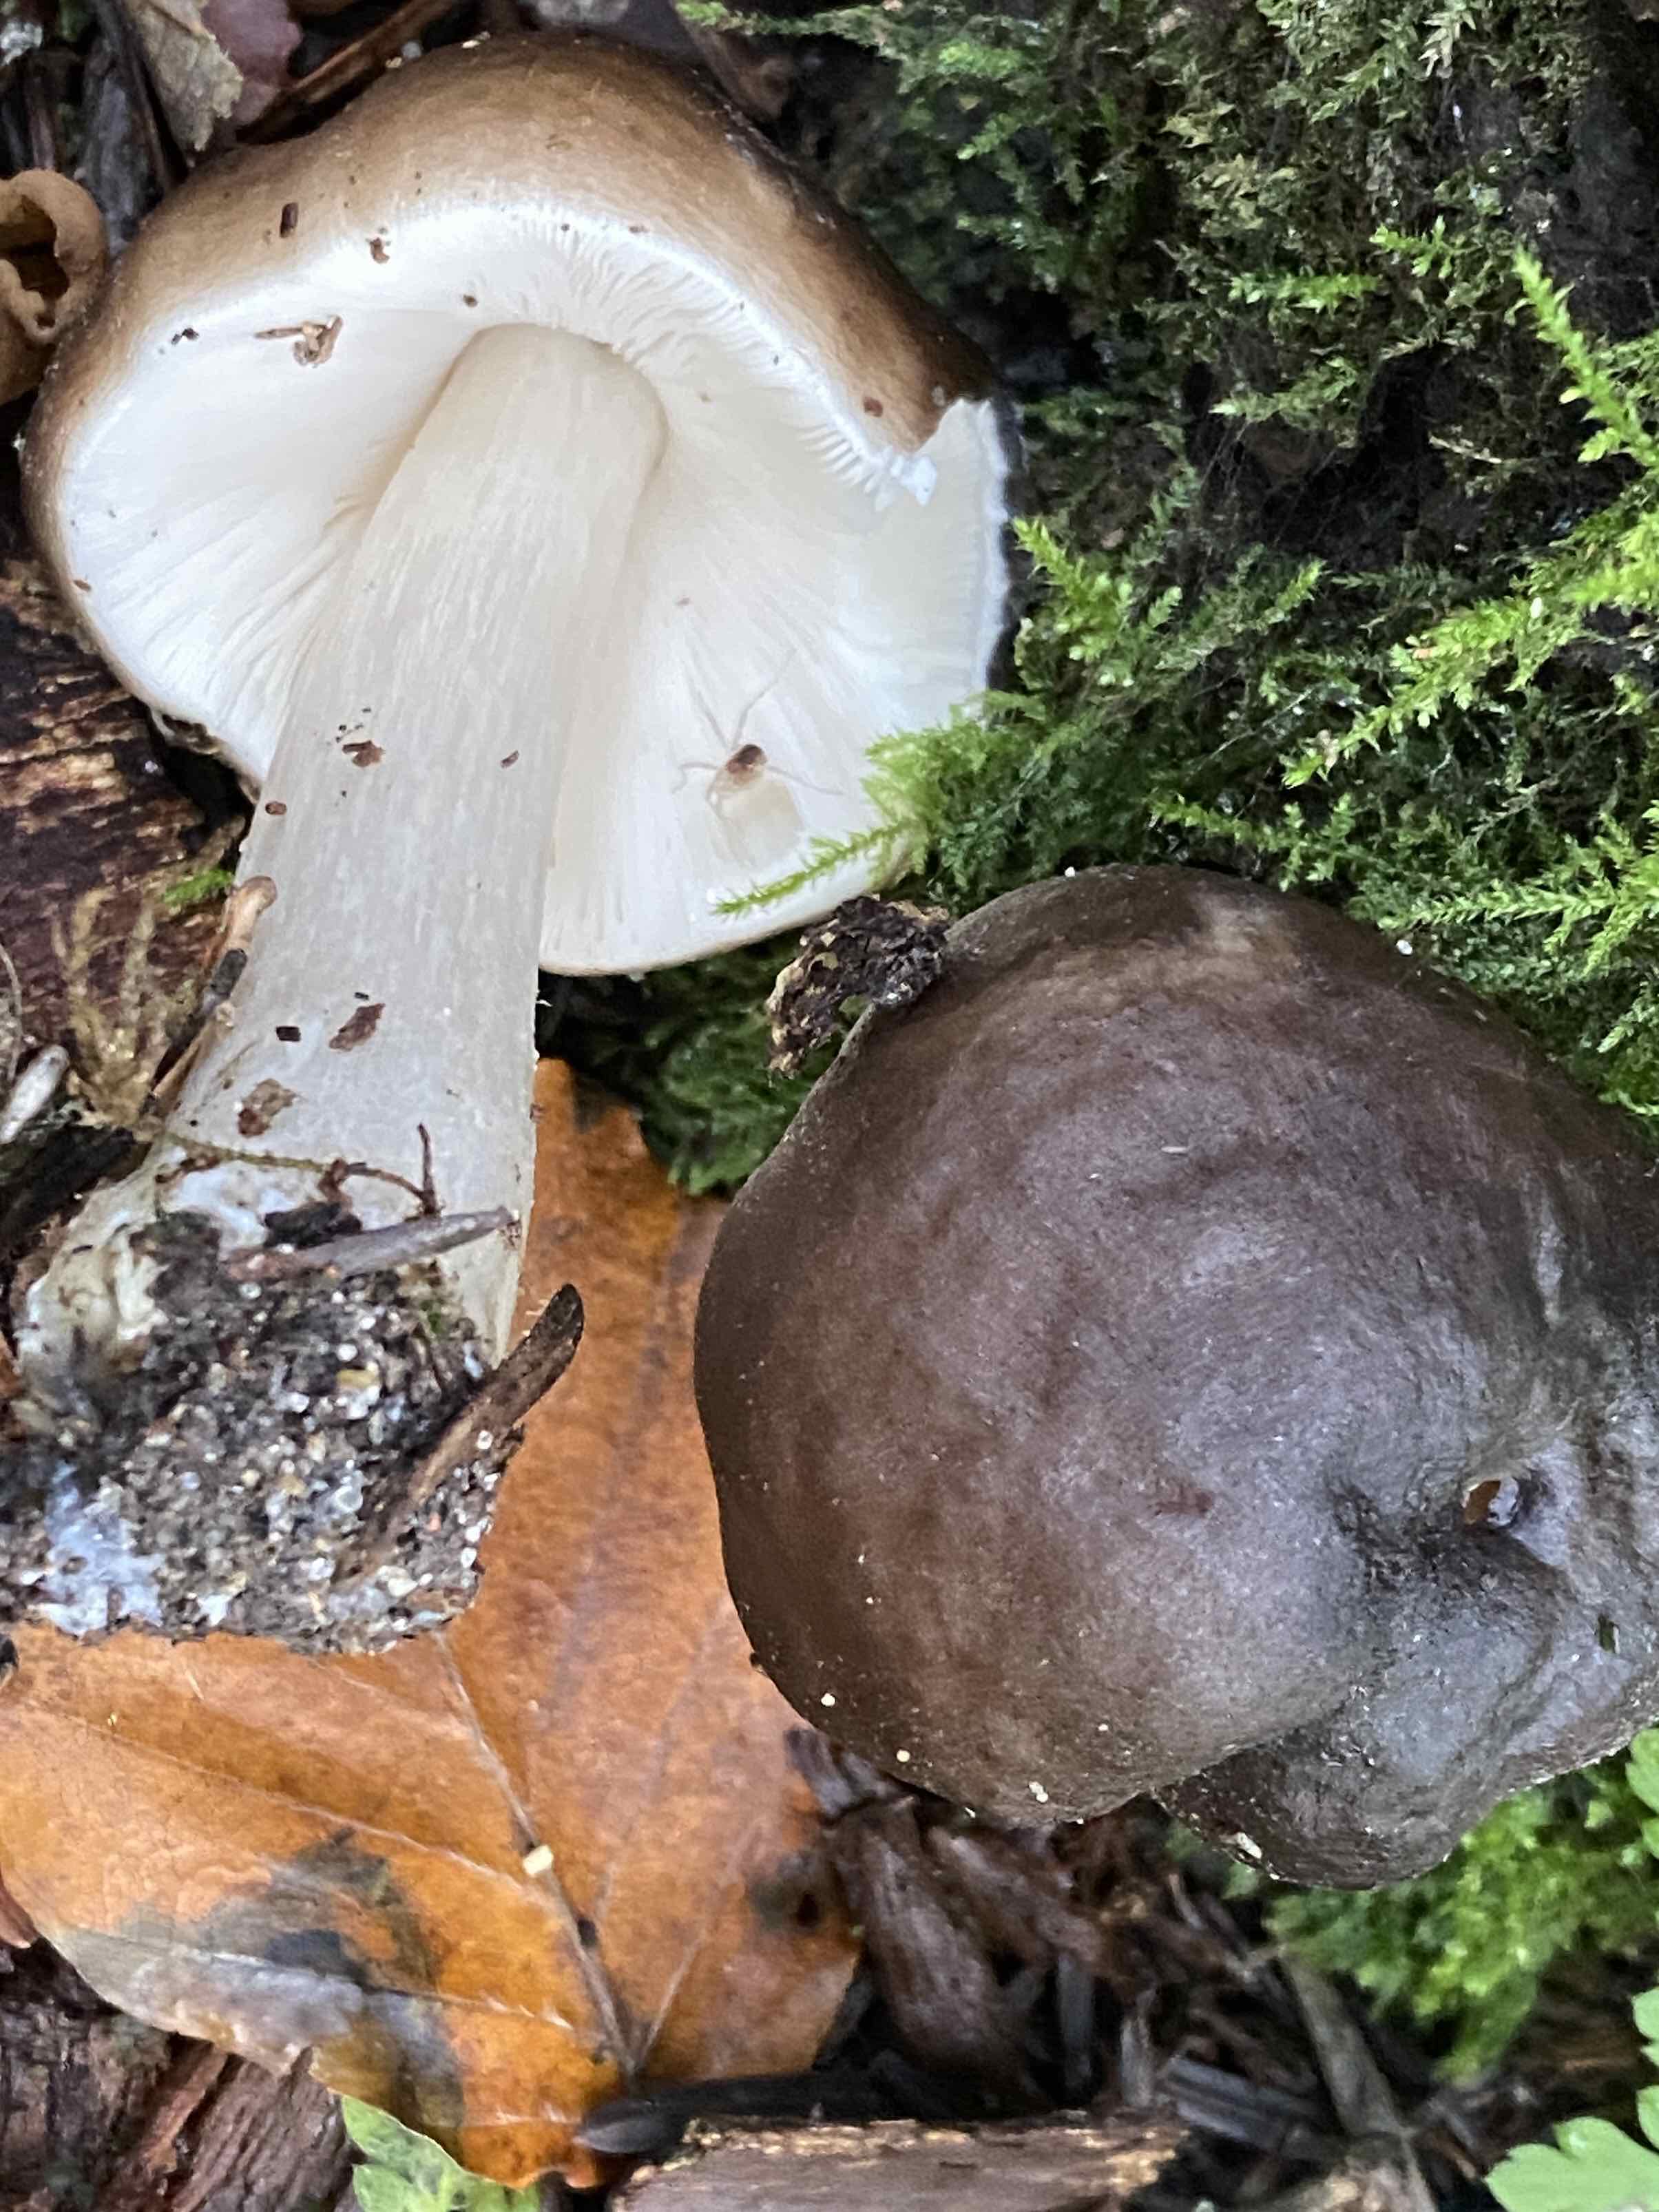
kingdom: Fungi
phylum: Basidiomycota
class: Agaricomycetes
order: Agaricales
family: Pluteaceae
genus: Pluteus
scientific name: Pluteus
